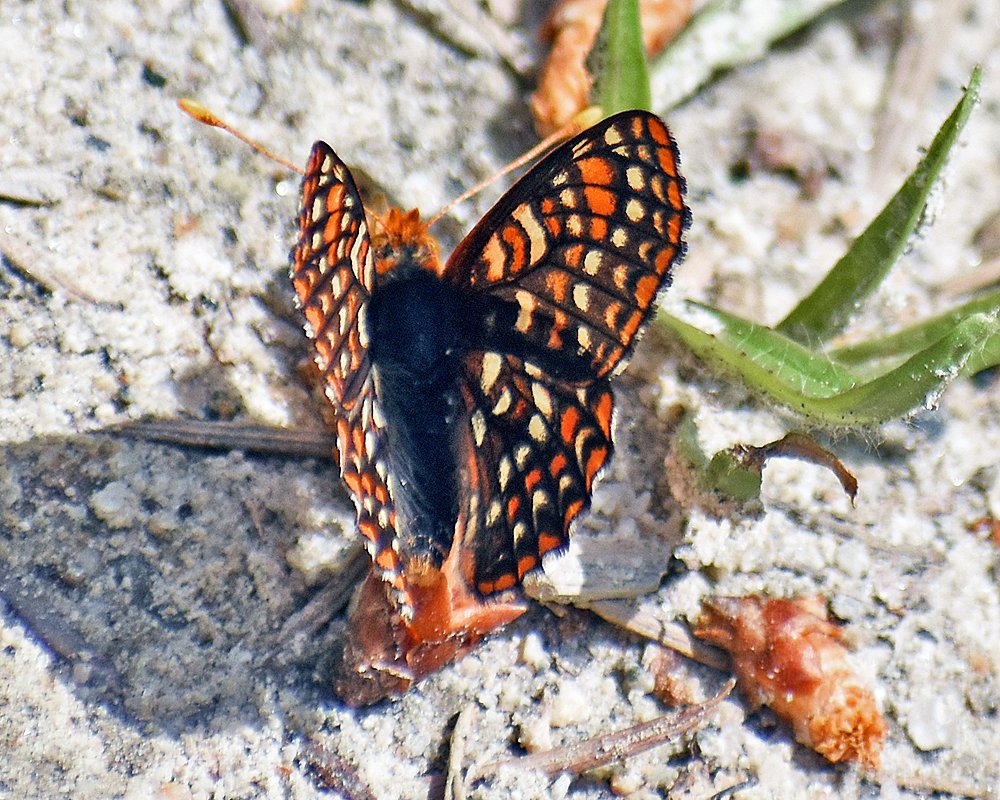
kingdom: Animalia
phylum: Arthropoda
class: Insecta
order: Lepidoptera
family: Nymphalidae
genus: Occidryas
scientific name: Occidryas anicia
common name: Anicia Checkerspot
